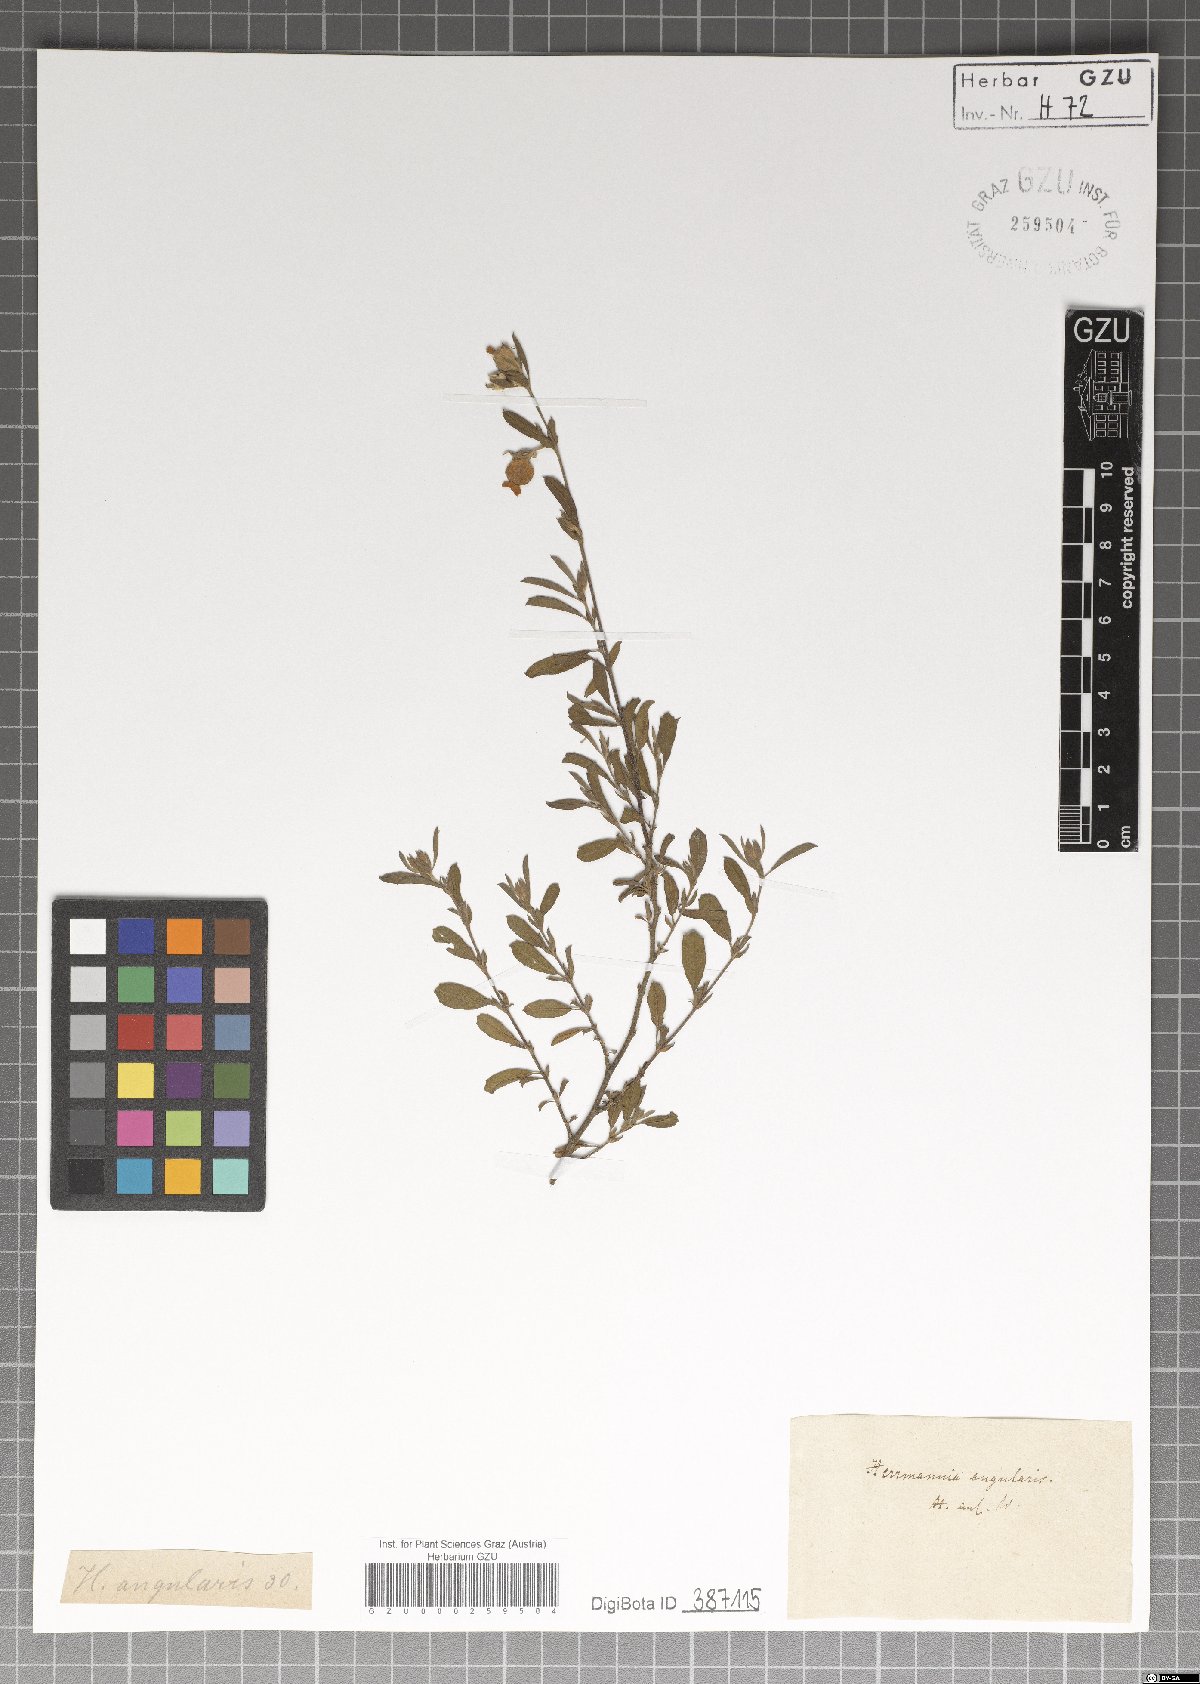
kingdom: Plantae
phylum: Tracheophyta
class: Magnoliopsida
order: Malvales
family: Malvaceae
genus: Hermannia
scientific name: Hermannia angularis
